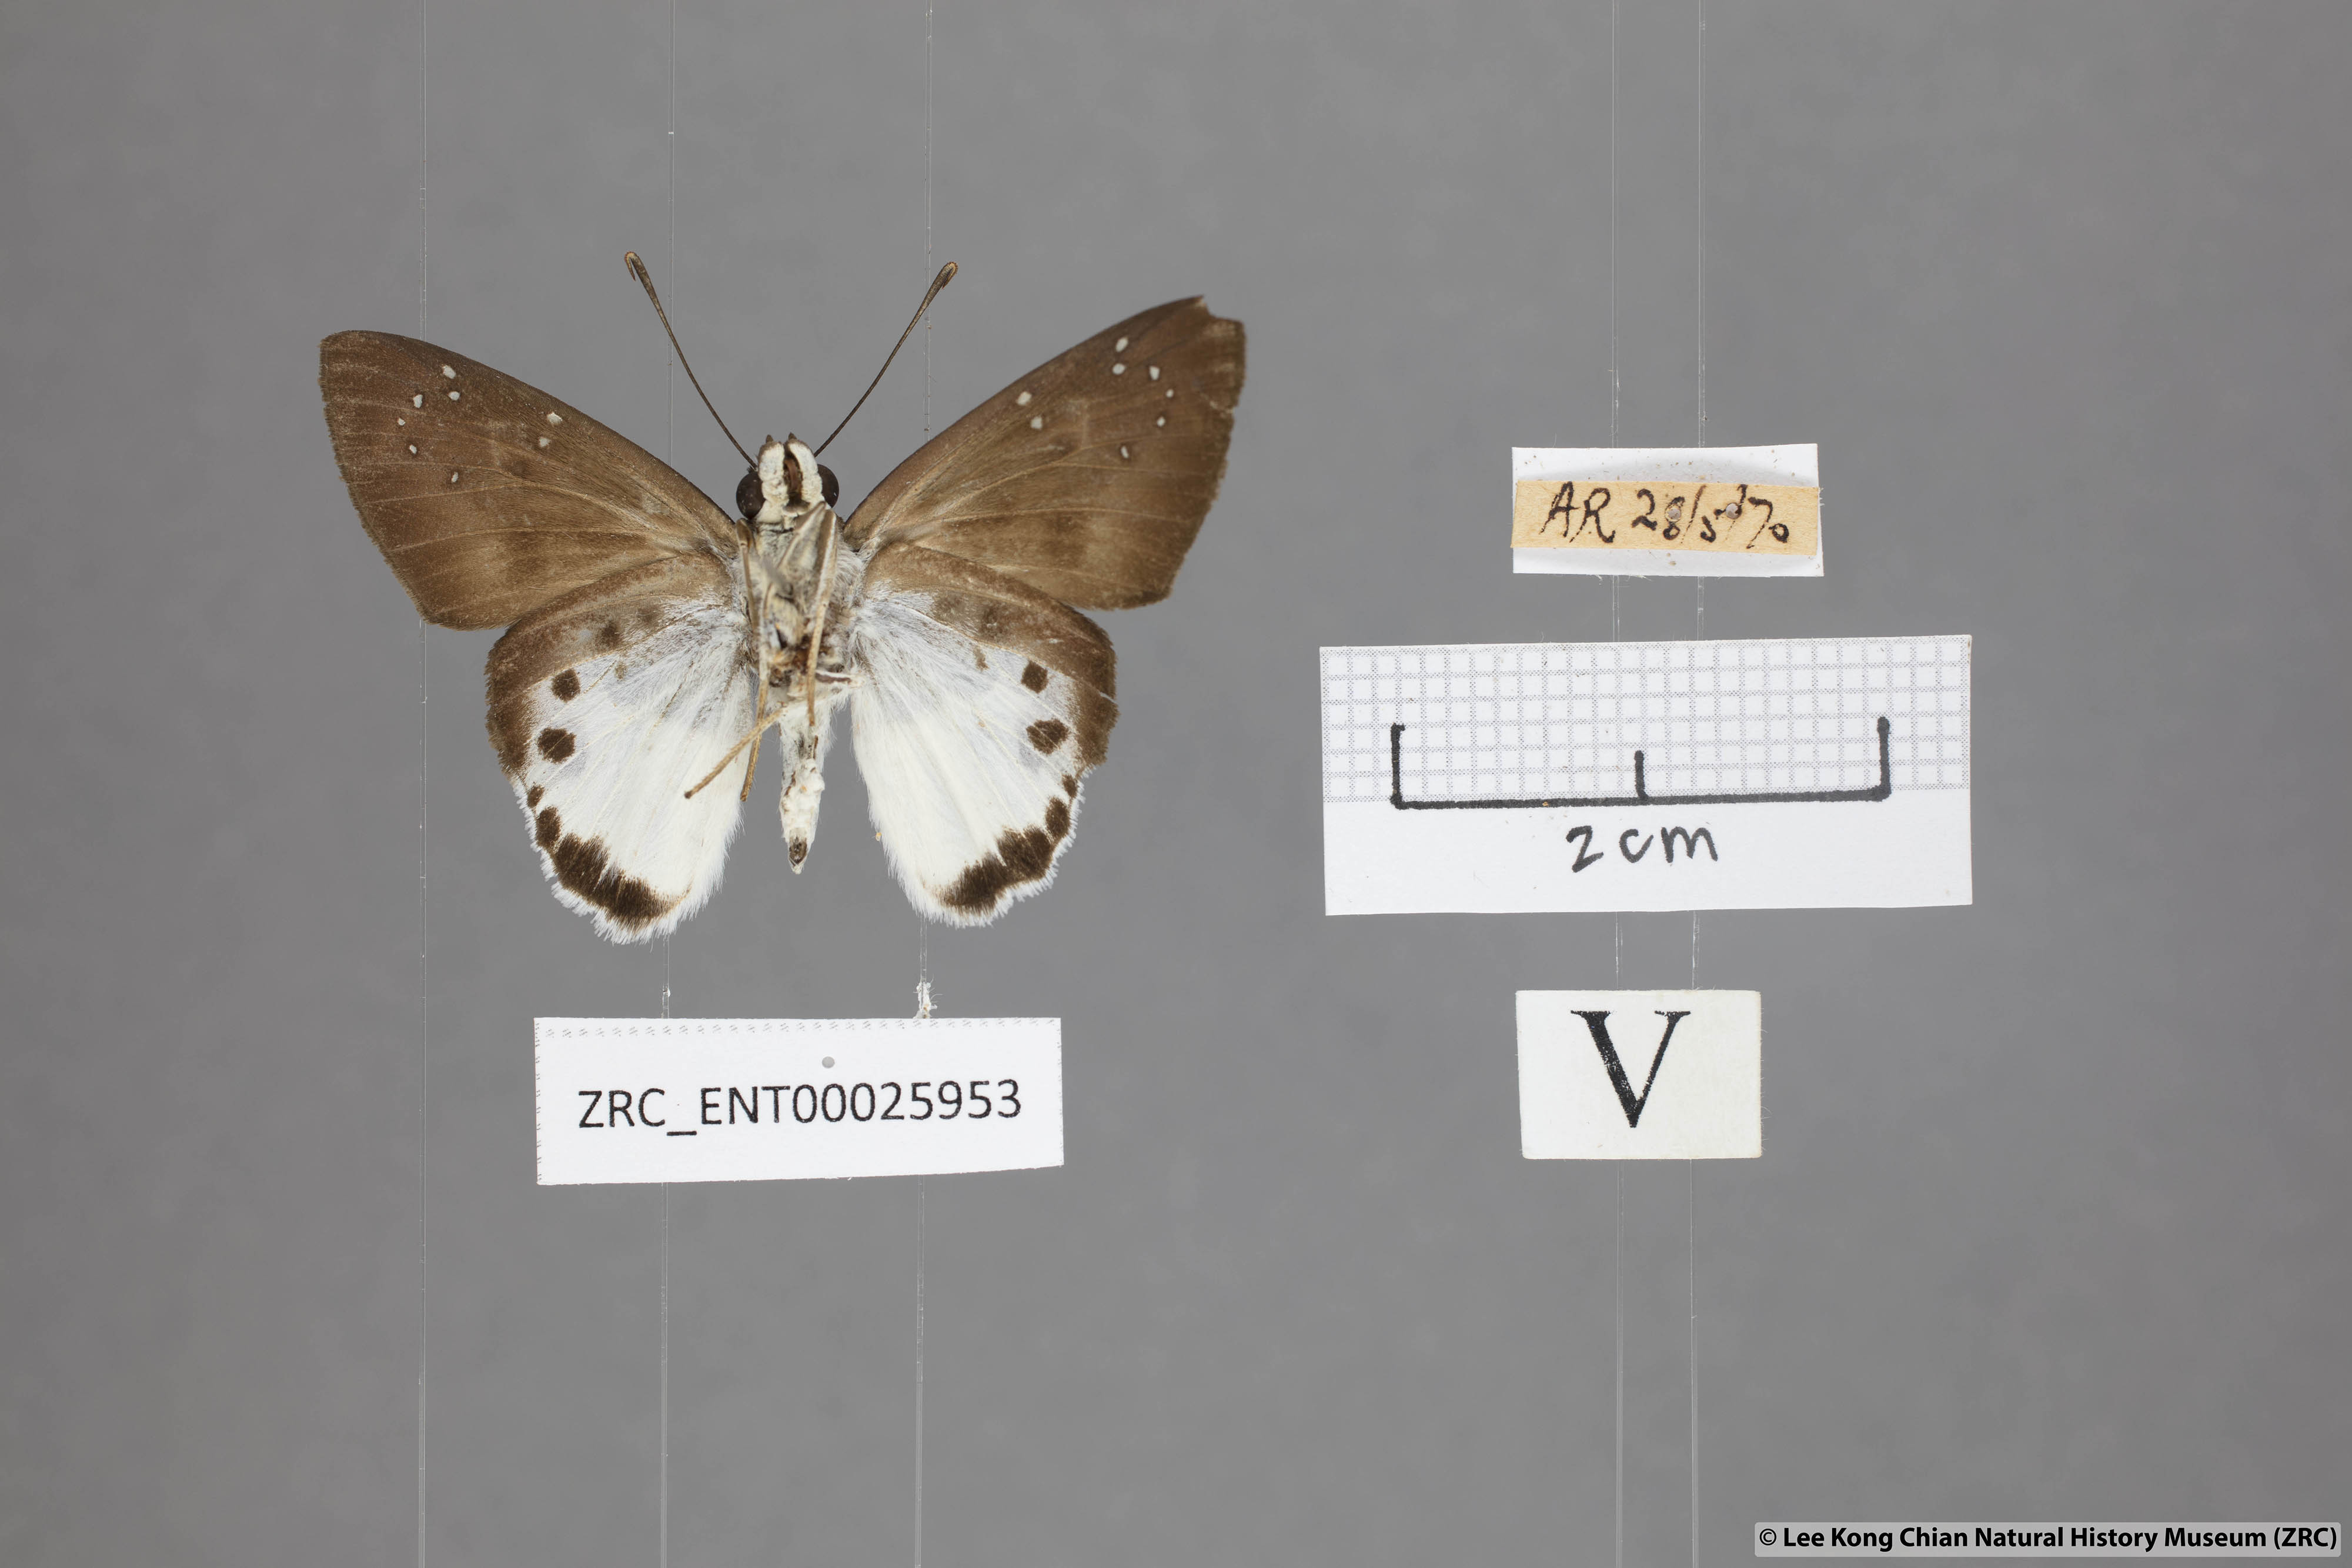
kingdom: Animalia
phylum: Arthropoda
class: Insecta
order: Lepidoptera
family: Hesperiidae
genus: Tagiades
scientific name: Tagiades calligana
